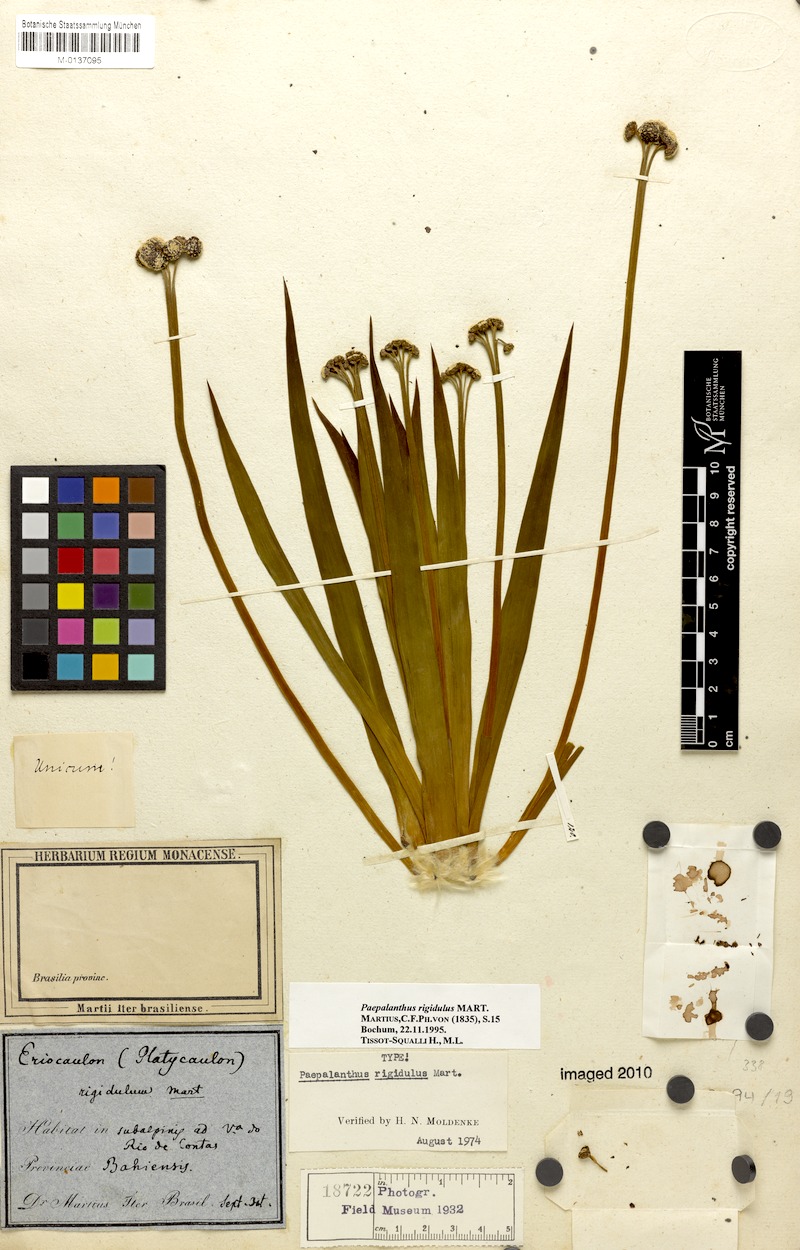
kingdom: Plantae
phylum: Tracheophyta
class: Liliopsida
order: Poales
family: Eriocaulaceae
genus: Paepalanthus
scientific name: Paepalanthus rigidulus
